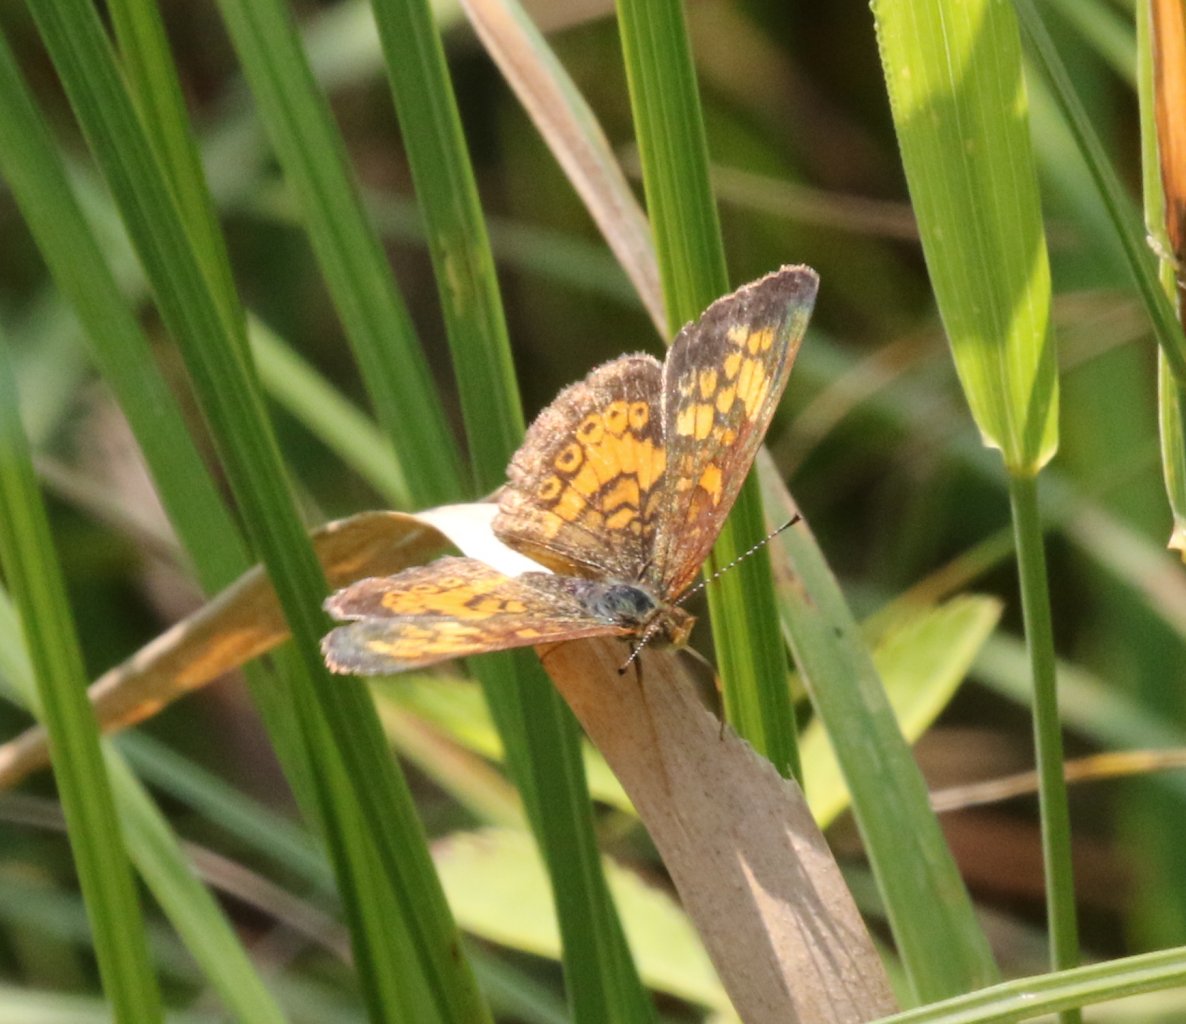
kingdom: Animalia
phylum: Arthropoda
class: Insecta
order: Lepidoptera
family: Nymphalidae
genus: Phyciodes
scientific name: Phyciodes tharos
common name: Northern Crescent
